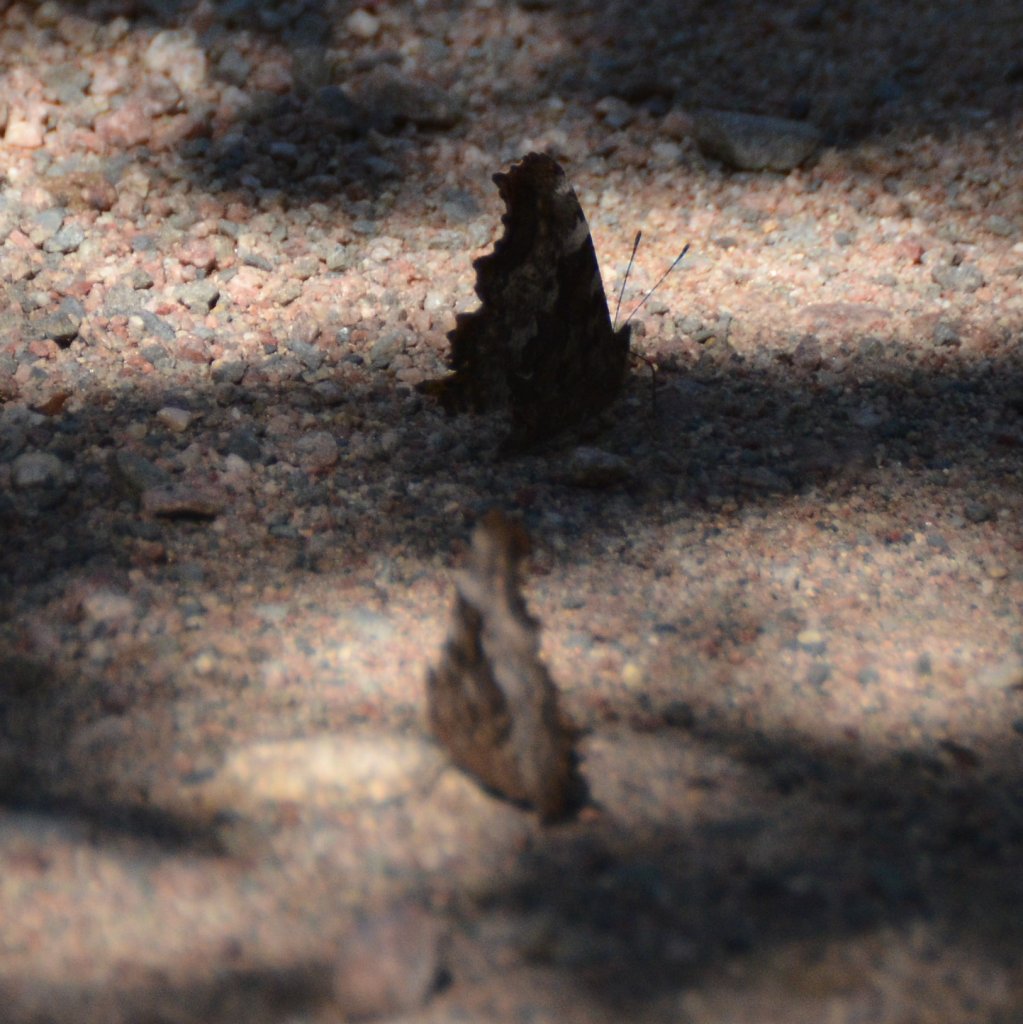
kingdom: Animalia
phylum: Arthropoda
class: Insecta
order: Lepidoptera
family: Nymphalidae
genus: Polygonia
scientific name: Polygonia vaualbum
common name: Compton Tortoiseshell
